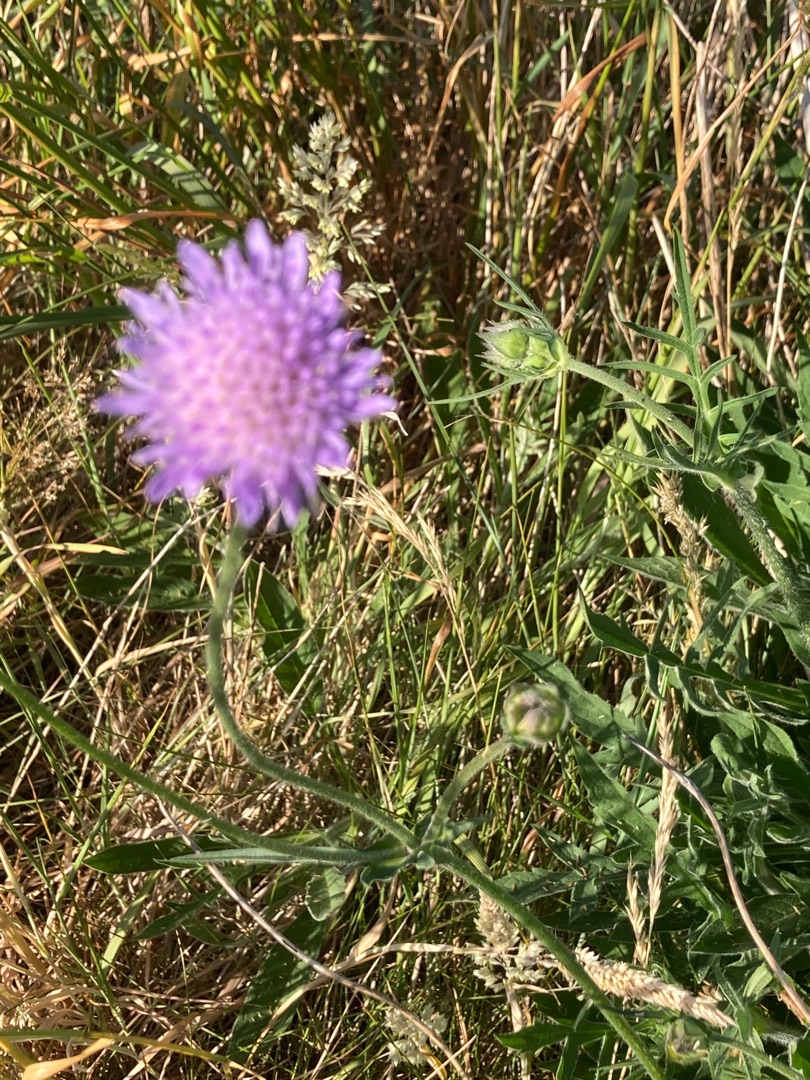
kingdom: Plantae
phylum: Tracheophyta
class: Magnoliopsida
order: Dipsacales
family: Caprifoliaceae
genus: Knautia
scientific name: Knautia arvensis
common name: Blåhat
